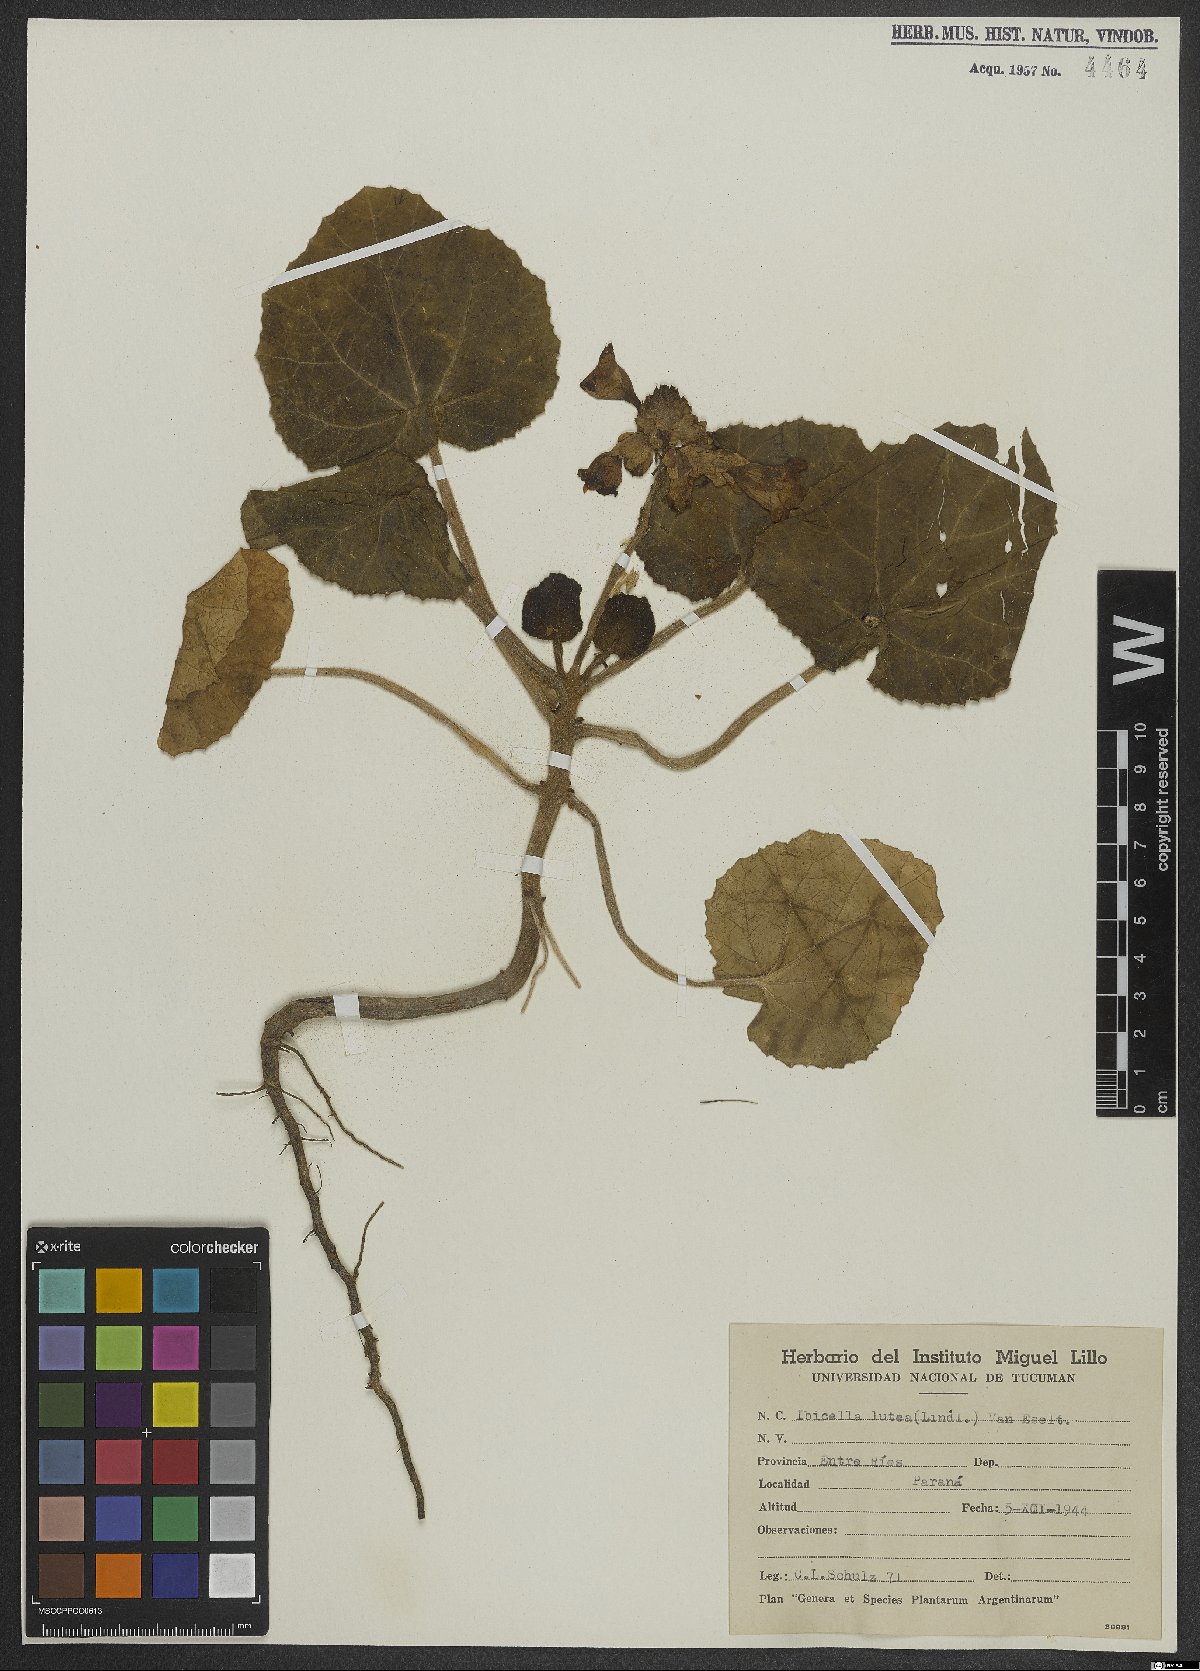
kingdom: Plantae
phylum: Tracheophyta
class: Magnoliopsida
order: Lamiales
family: Martyniaceae
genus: Ibicella
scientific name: Ibicella lutea
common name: Yellow unicorn-plant
